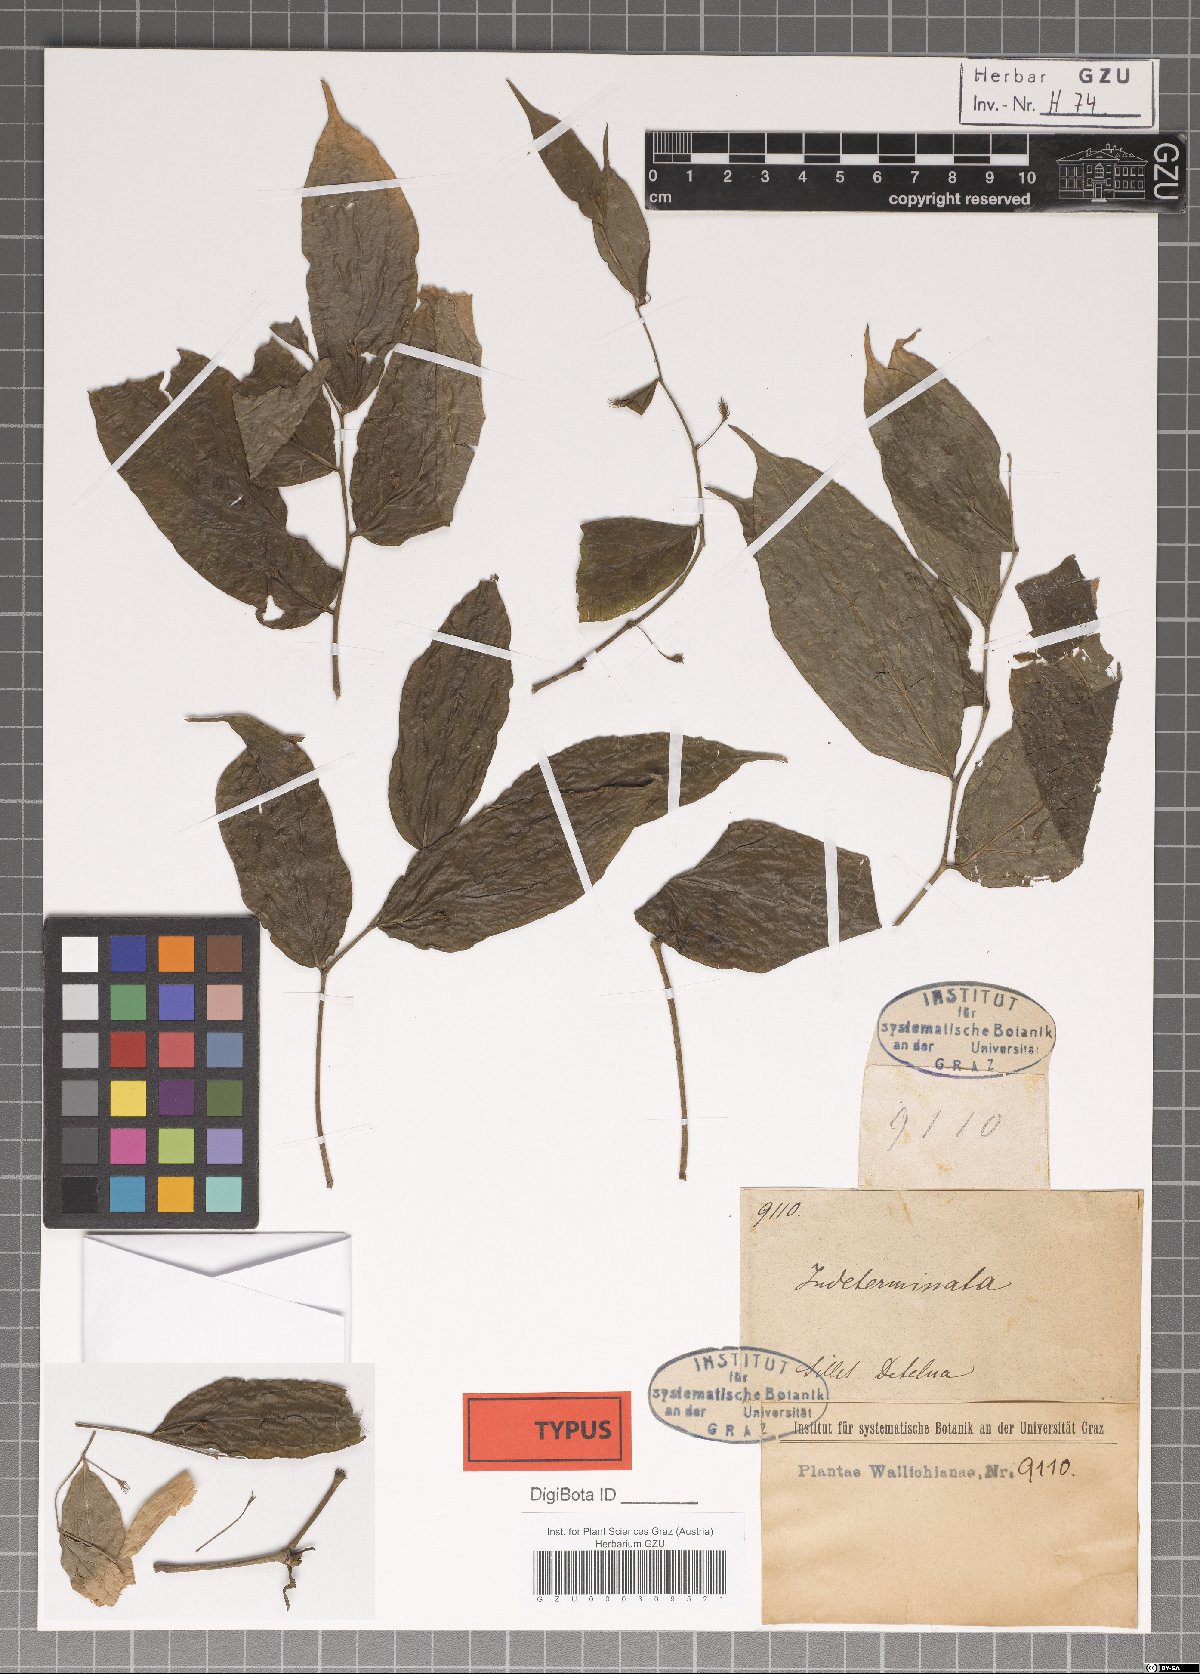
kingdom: Plantae
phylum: Tracheophyta
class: Liliopsida
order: Pandanales
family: Stemonaceae
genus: Stichoneuron
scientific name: Stichoneuron membranaceum
